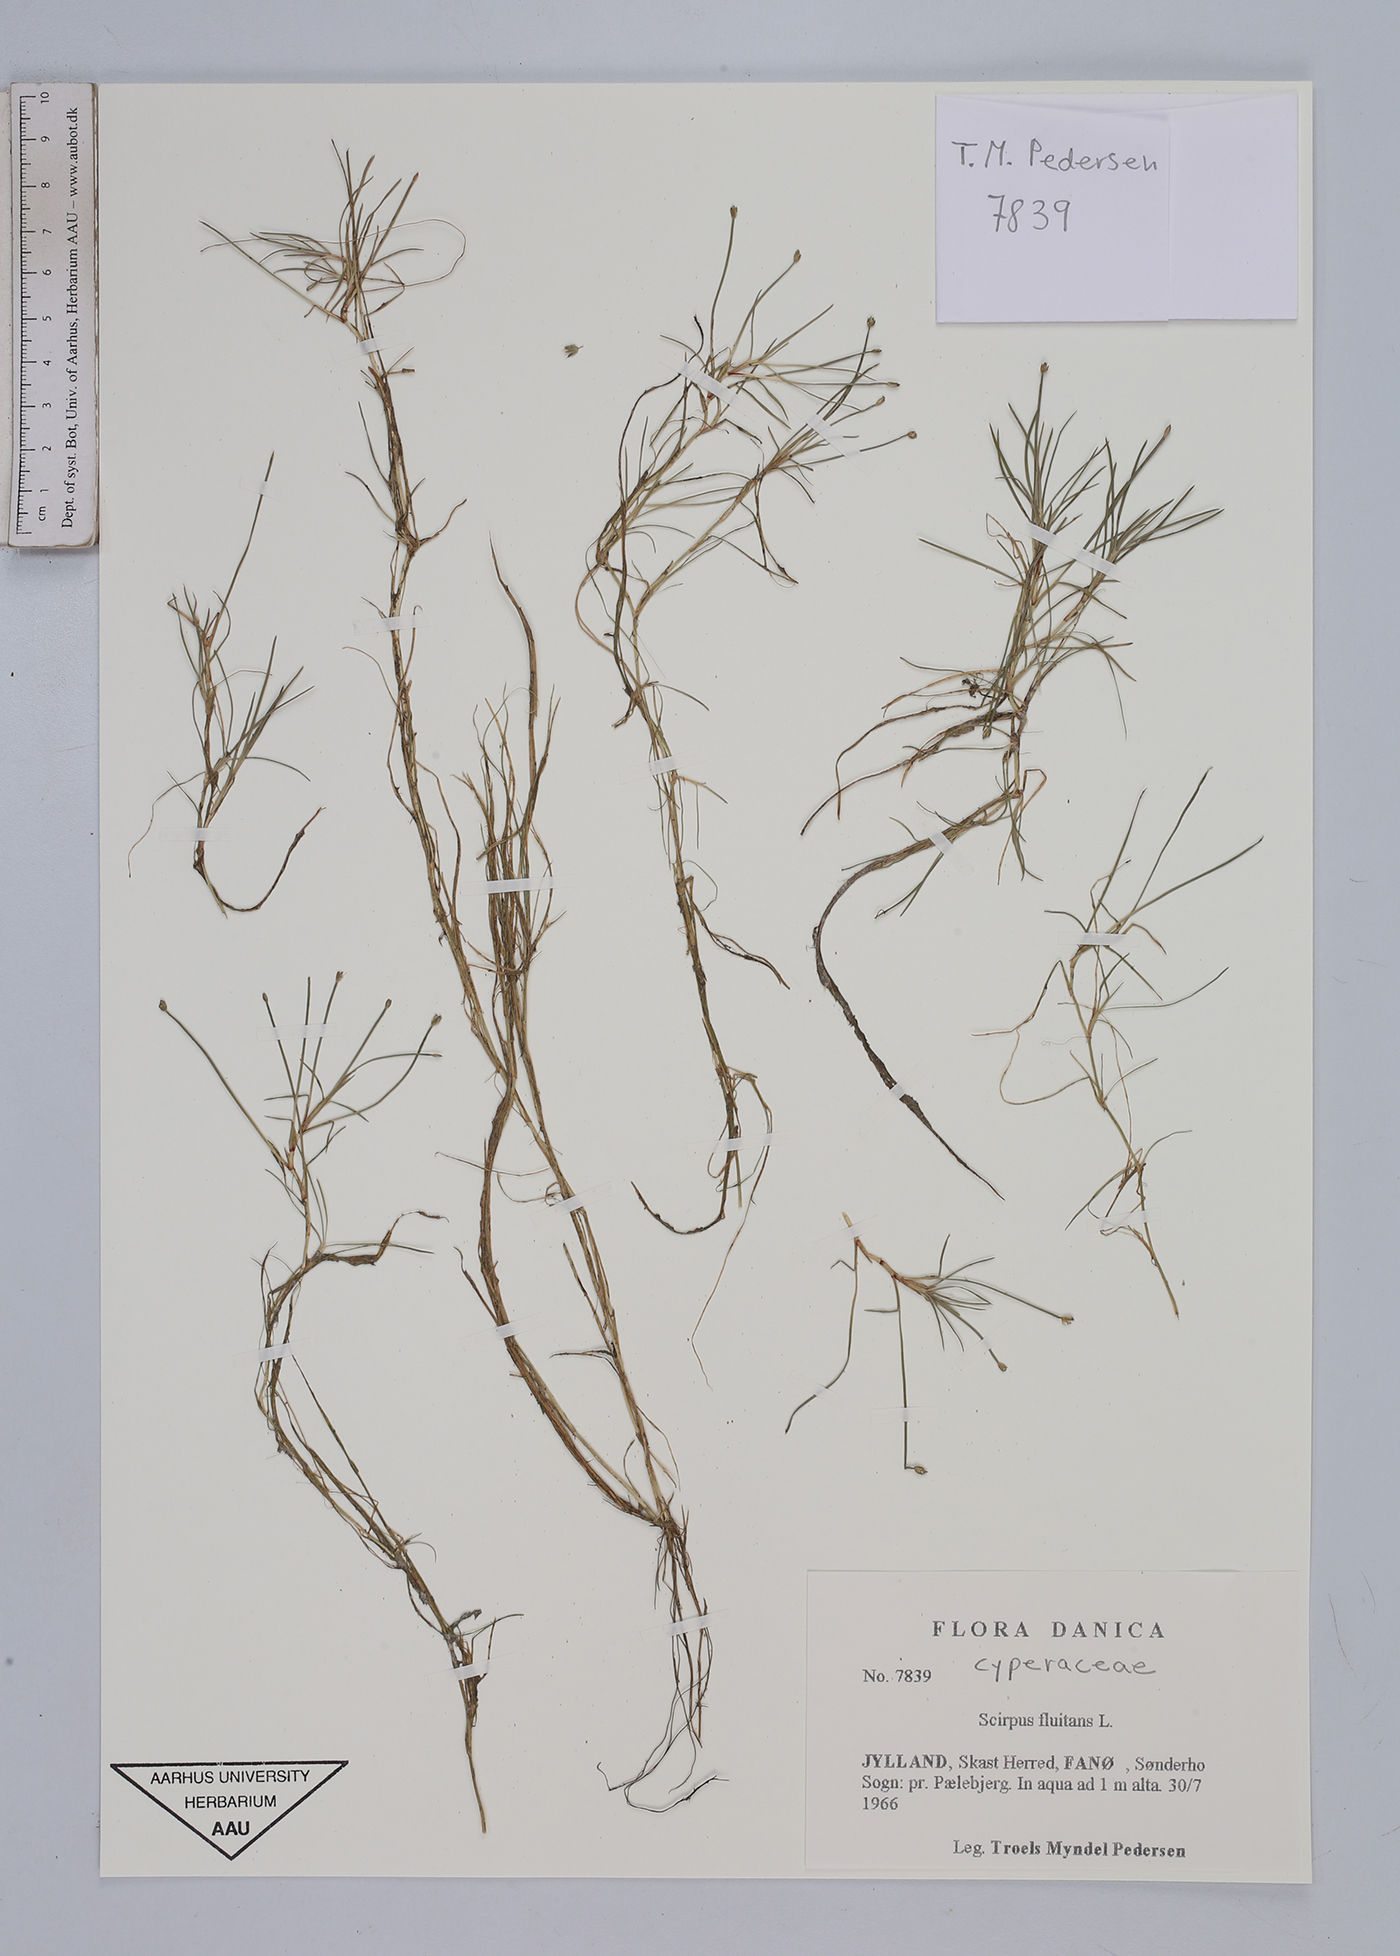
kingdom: Plantae
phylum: Tracheophyta
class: Liliopsida
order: Poales
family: Cyperaceae
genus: Isolepis
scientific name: Isolepis fluitans
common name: Floating club-rush
